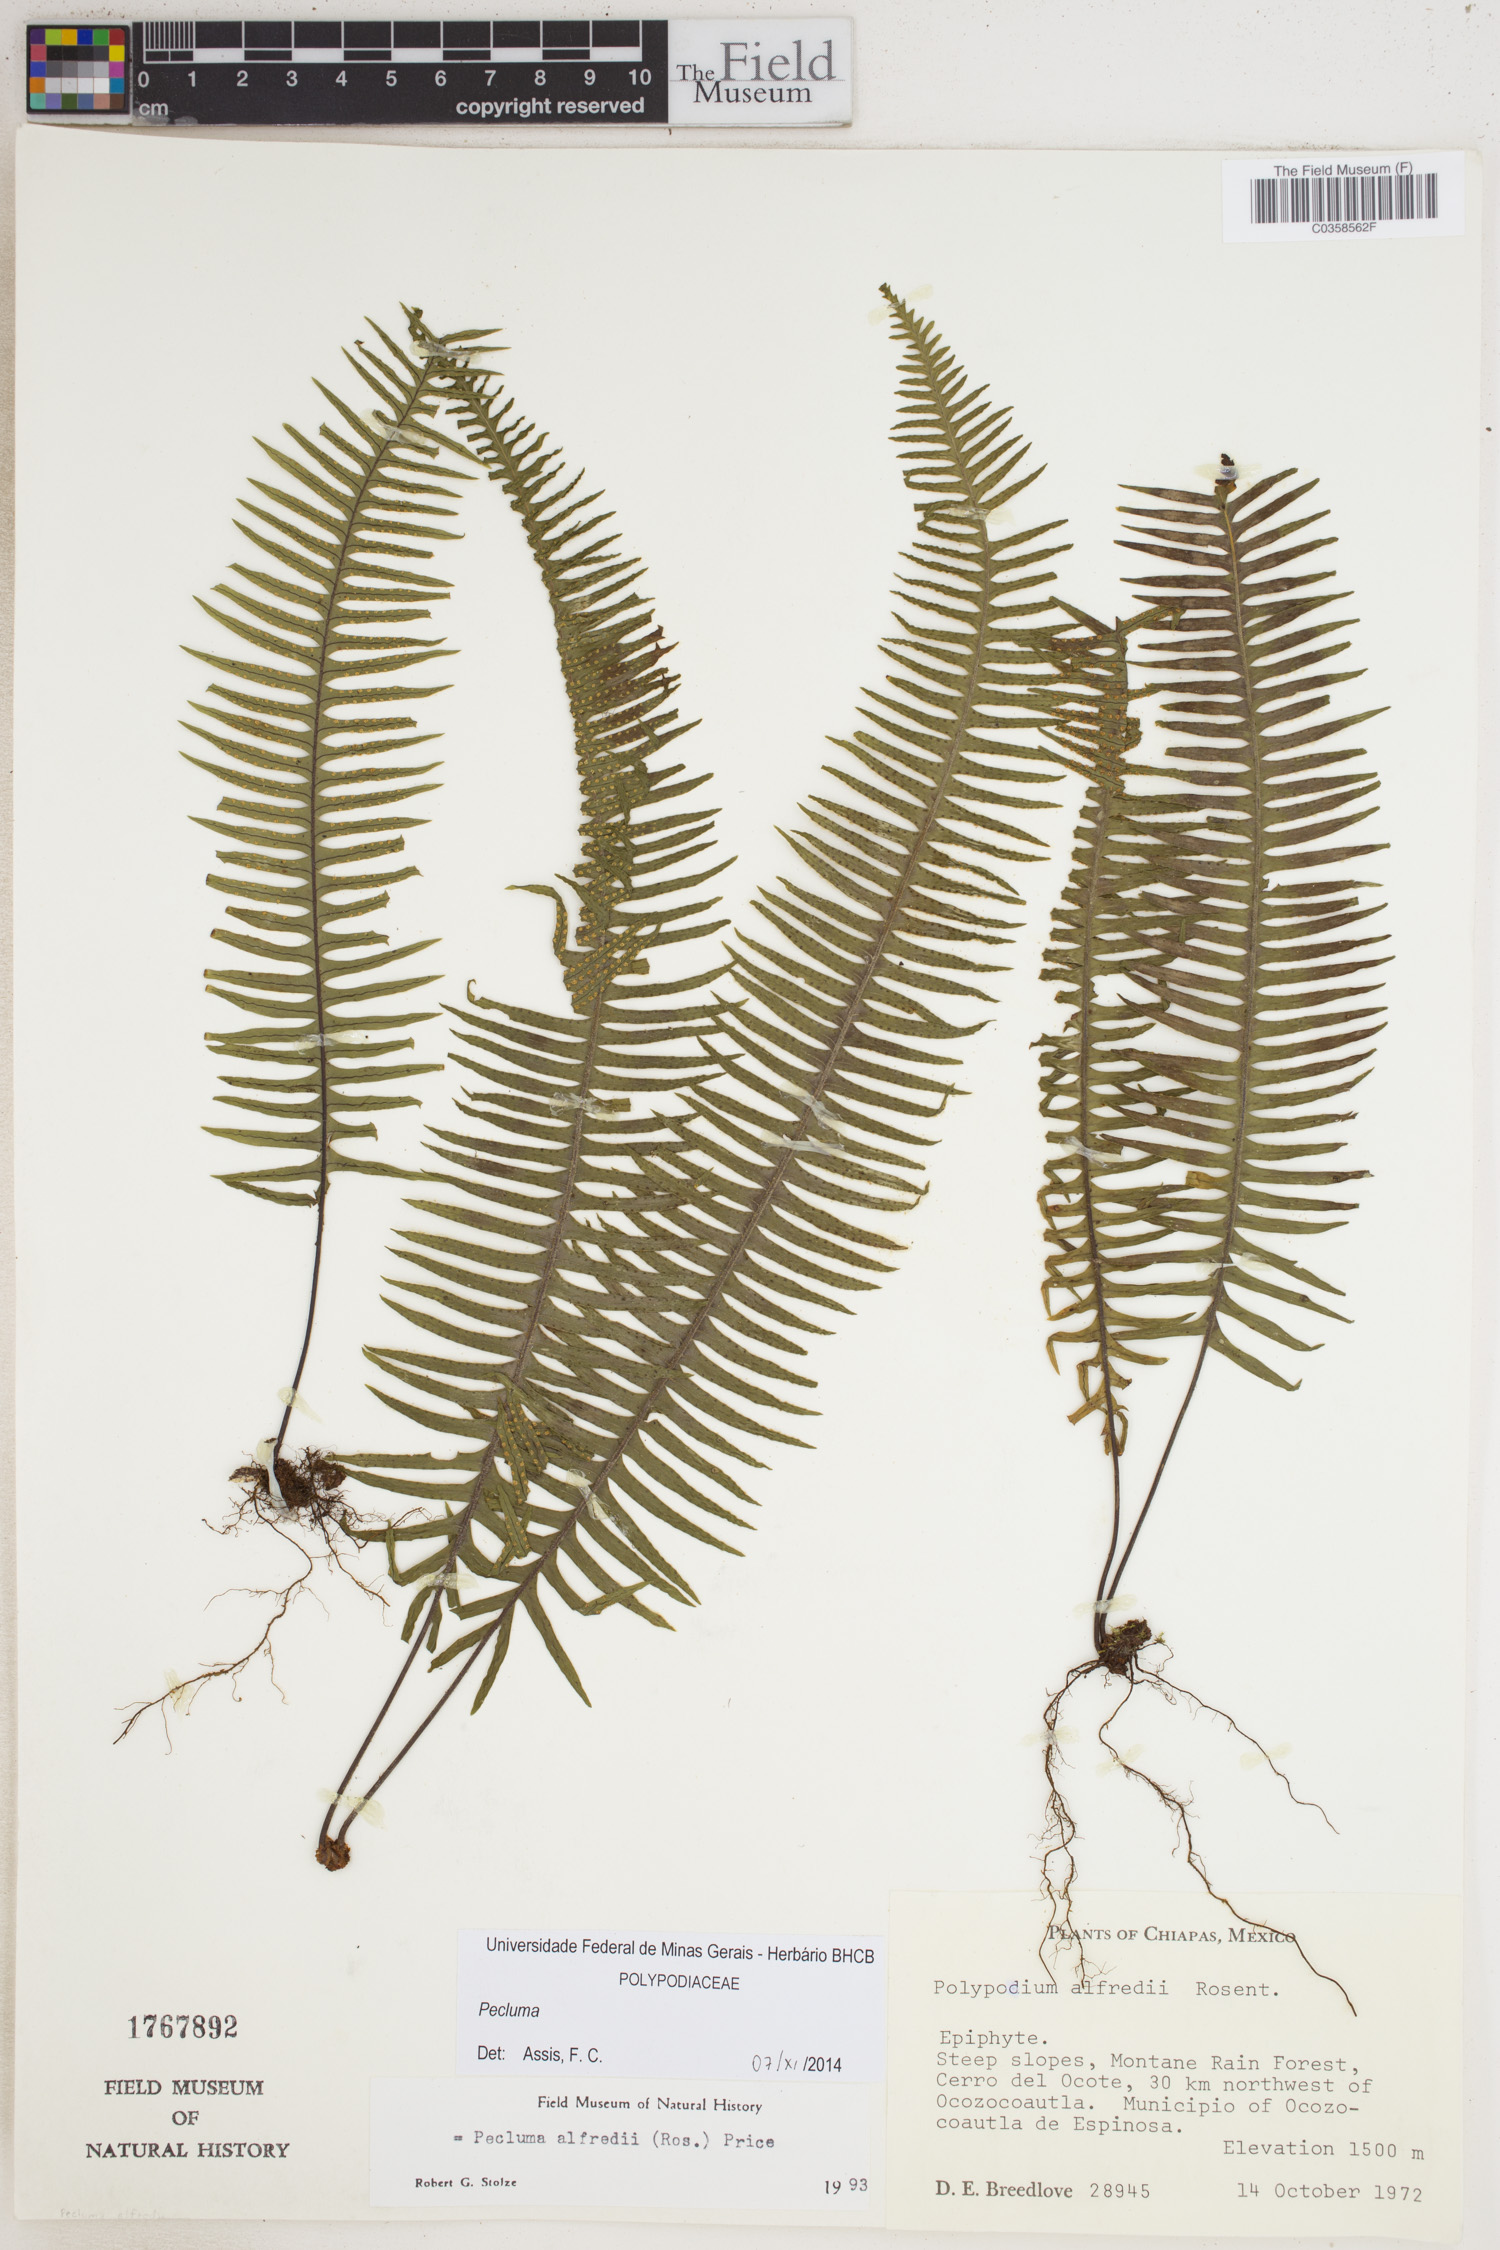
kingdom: Plantae
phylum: Tracheophyta
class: Polypodiopsida
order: Polypodiales
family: Polypodiaceae
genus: Pecluma
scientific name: Pecluma
